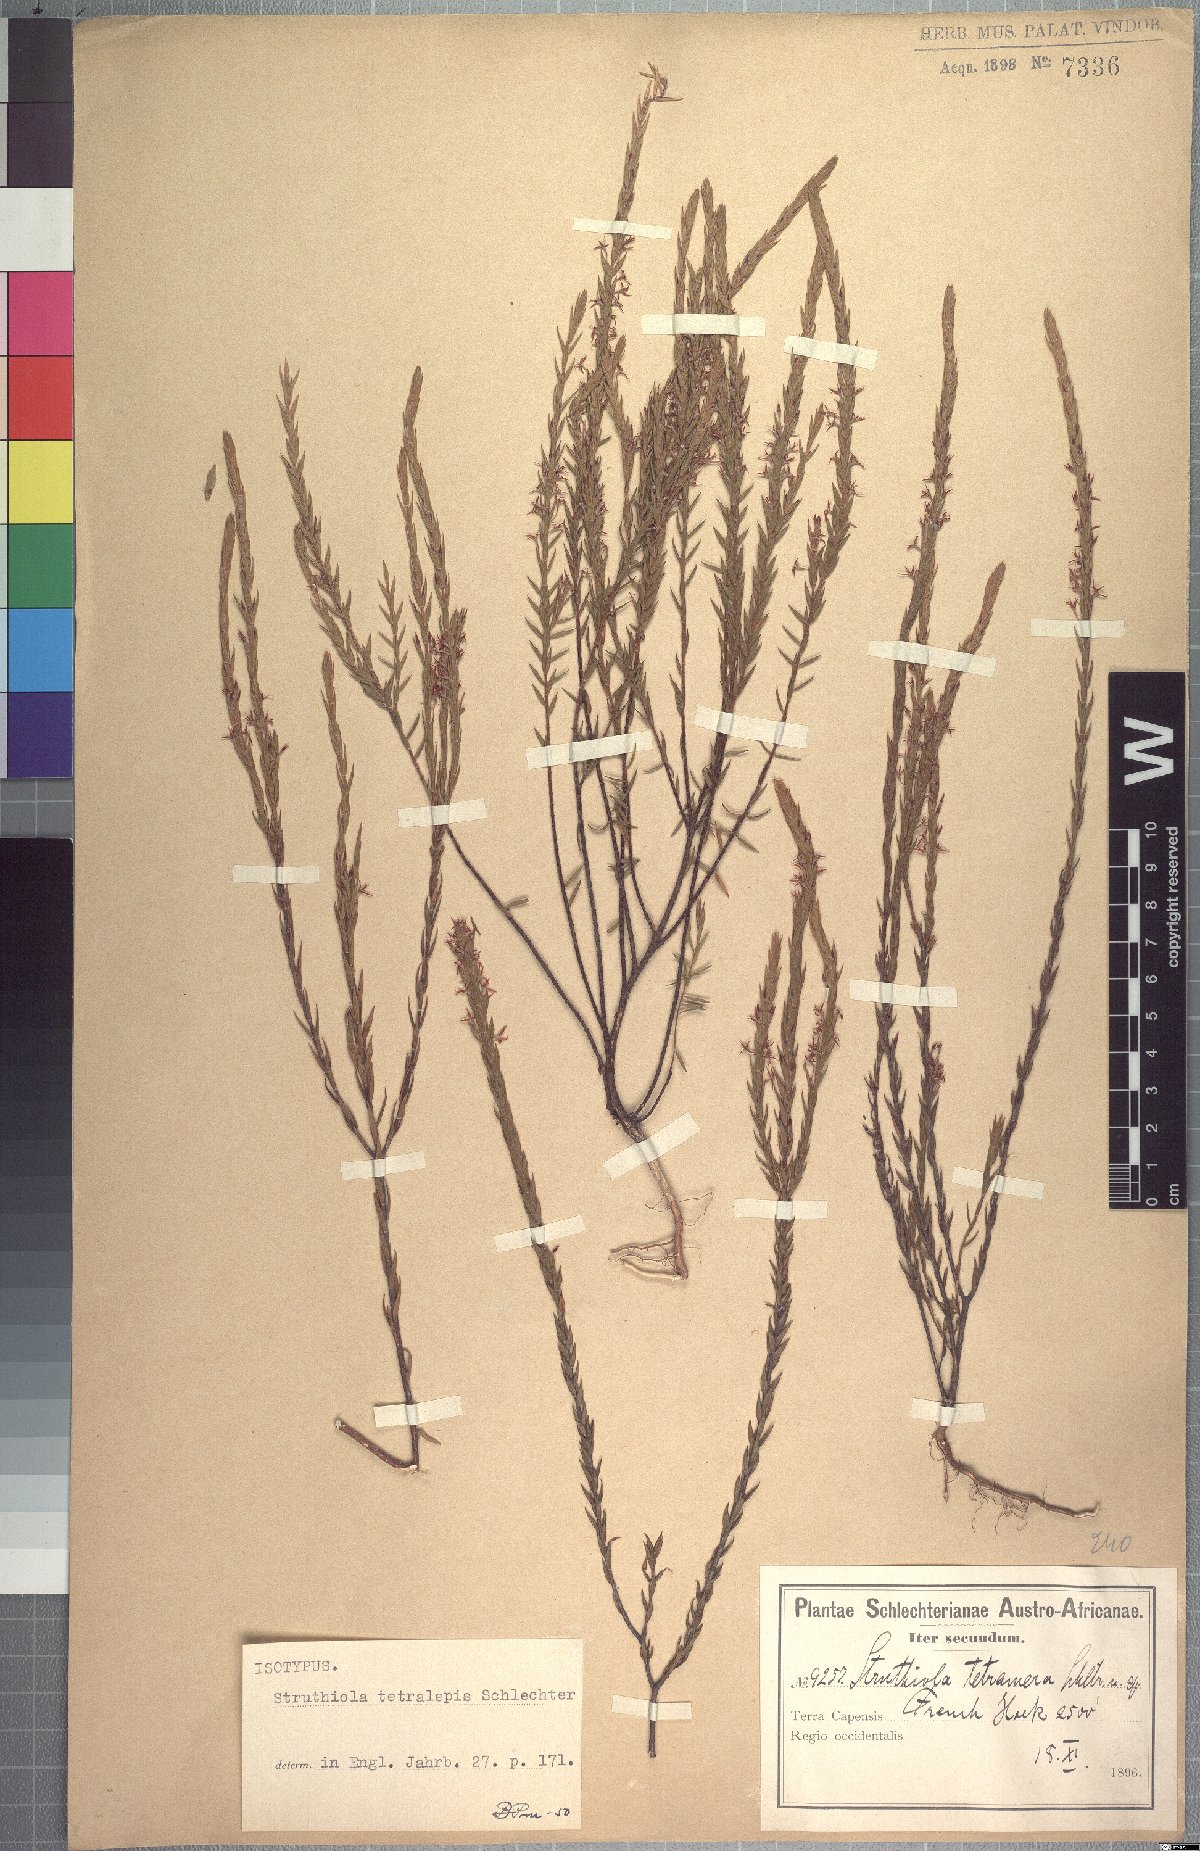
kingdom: Plantae
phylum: Tracheophyta
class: Magnoliopsida
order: Malvales
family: Thymelaeaceae
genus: Struthiola
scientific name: Struthiola tetralepis
